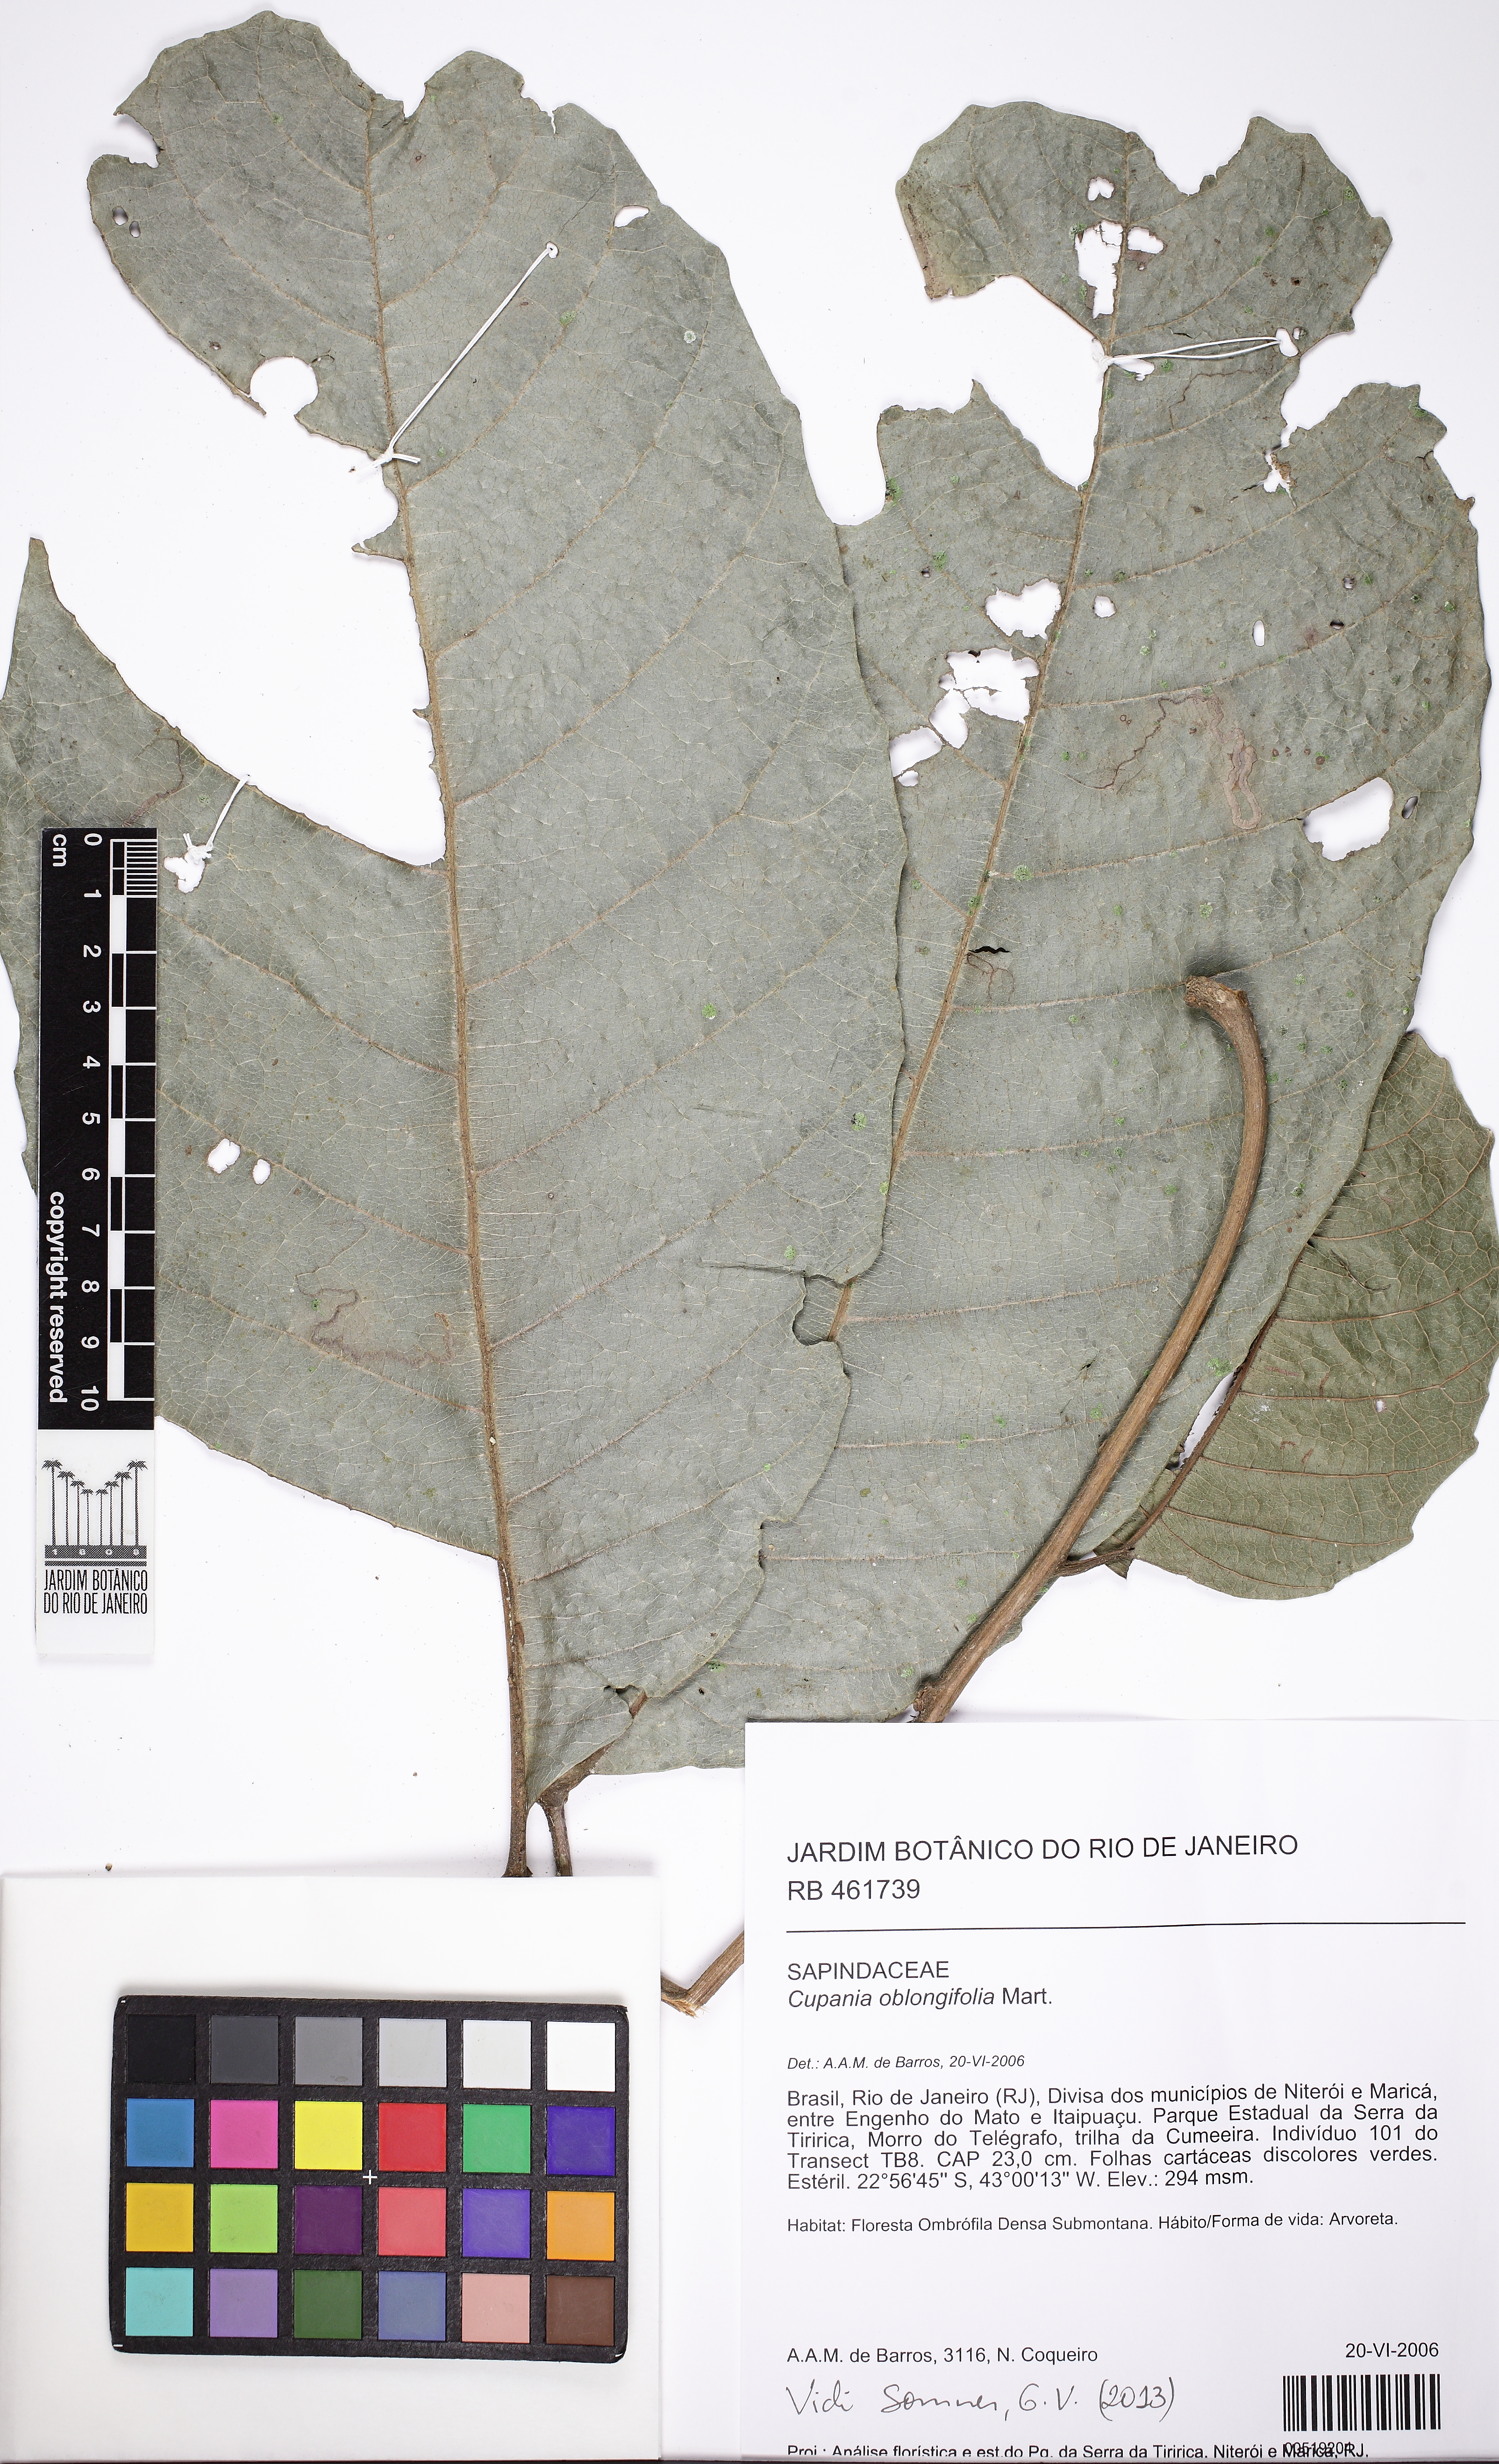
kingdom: Plantae
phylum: Tracheophyta
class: Magnoliopsida
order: Sapindales
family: Sapindaceae
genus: Cupania
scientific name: Cupania oblongifolia
